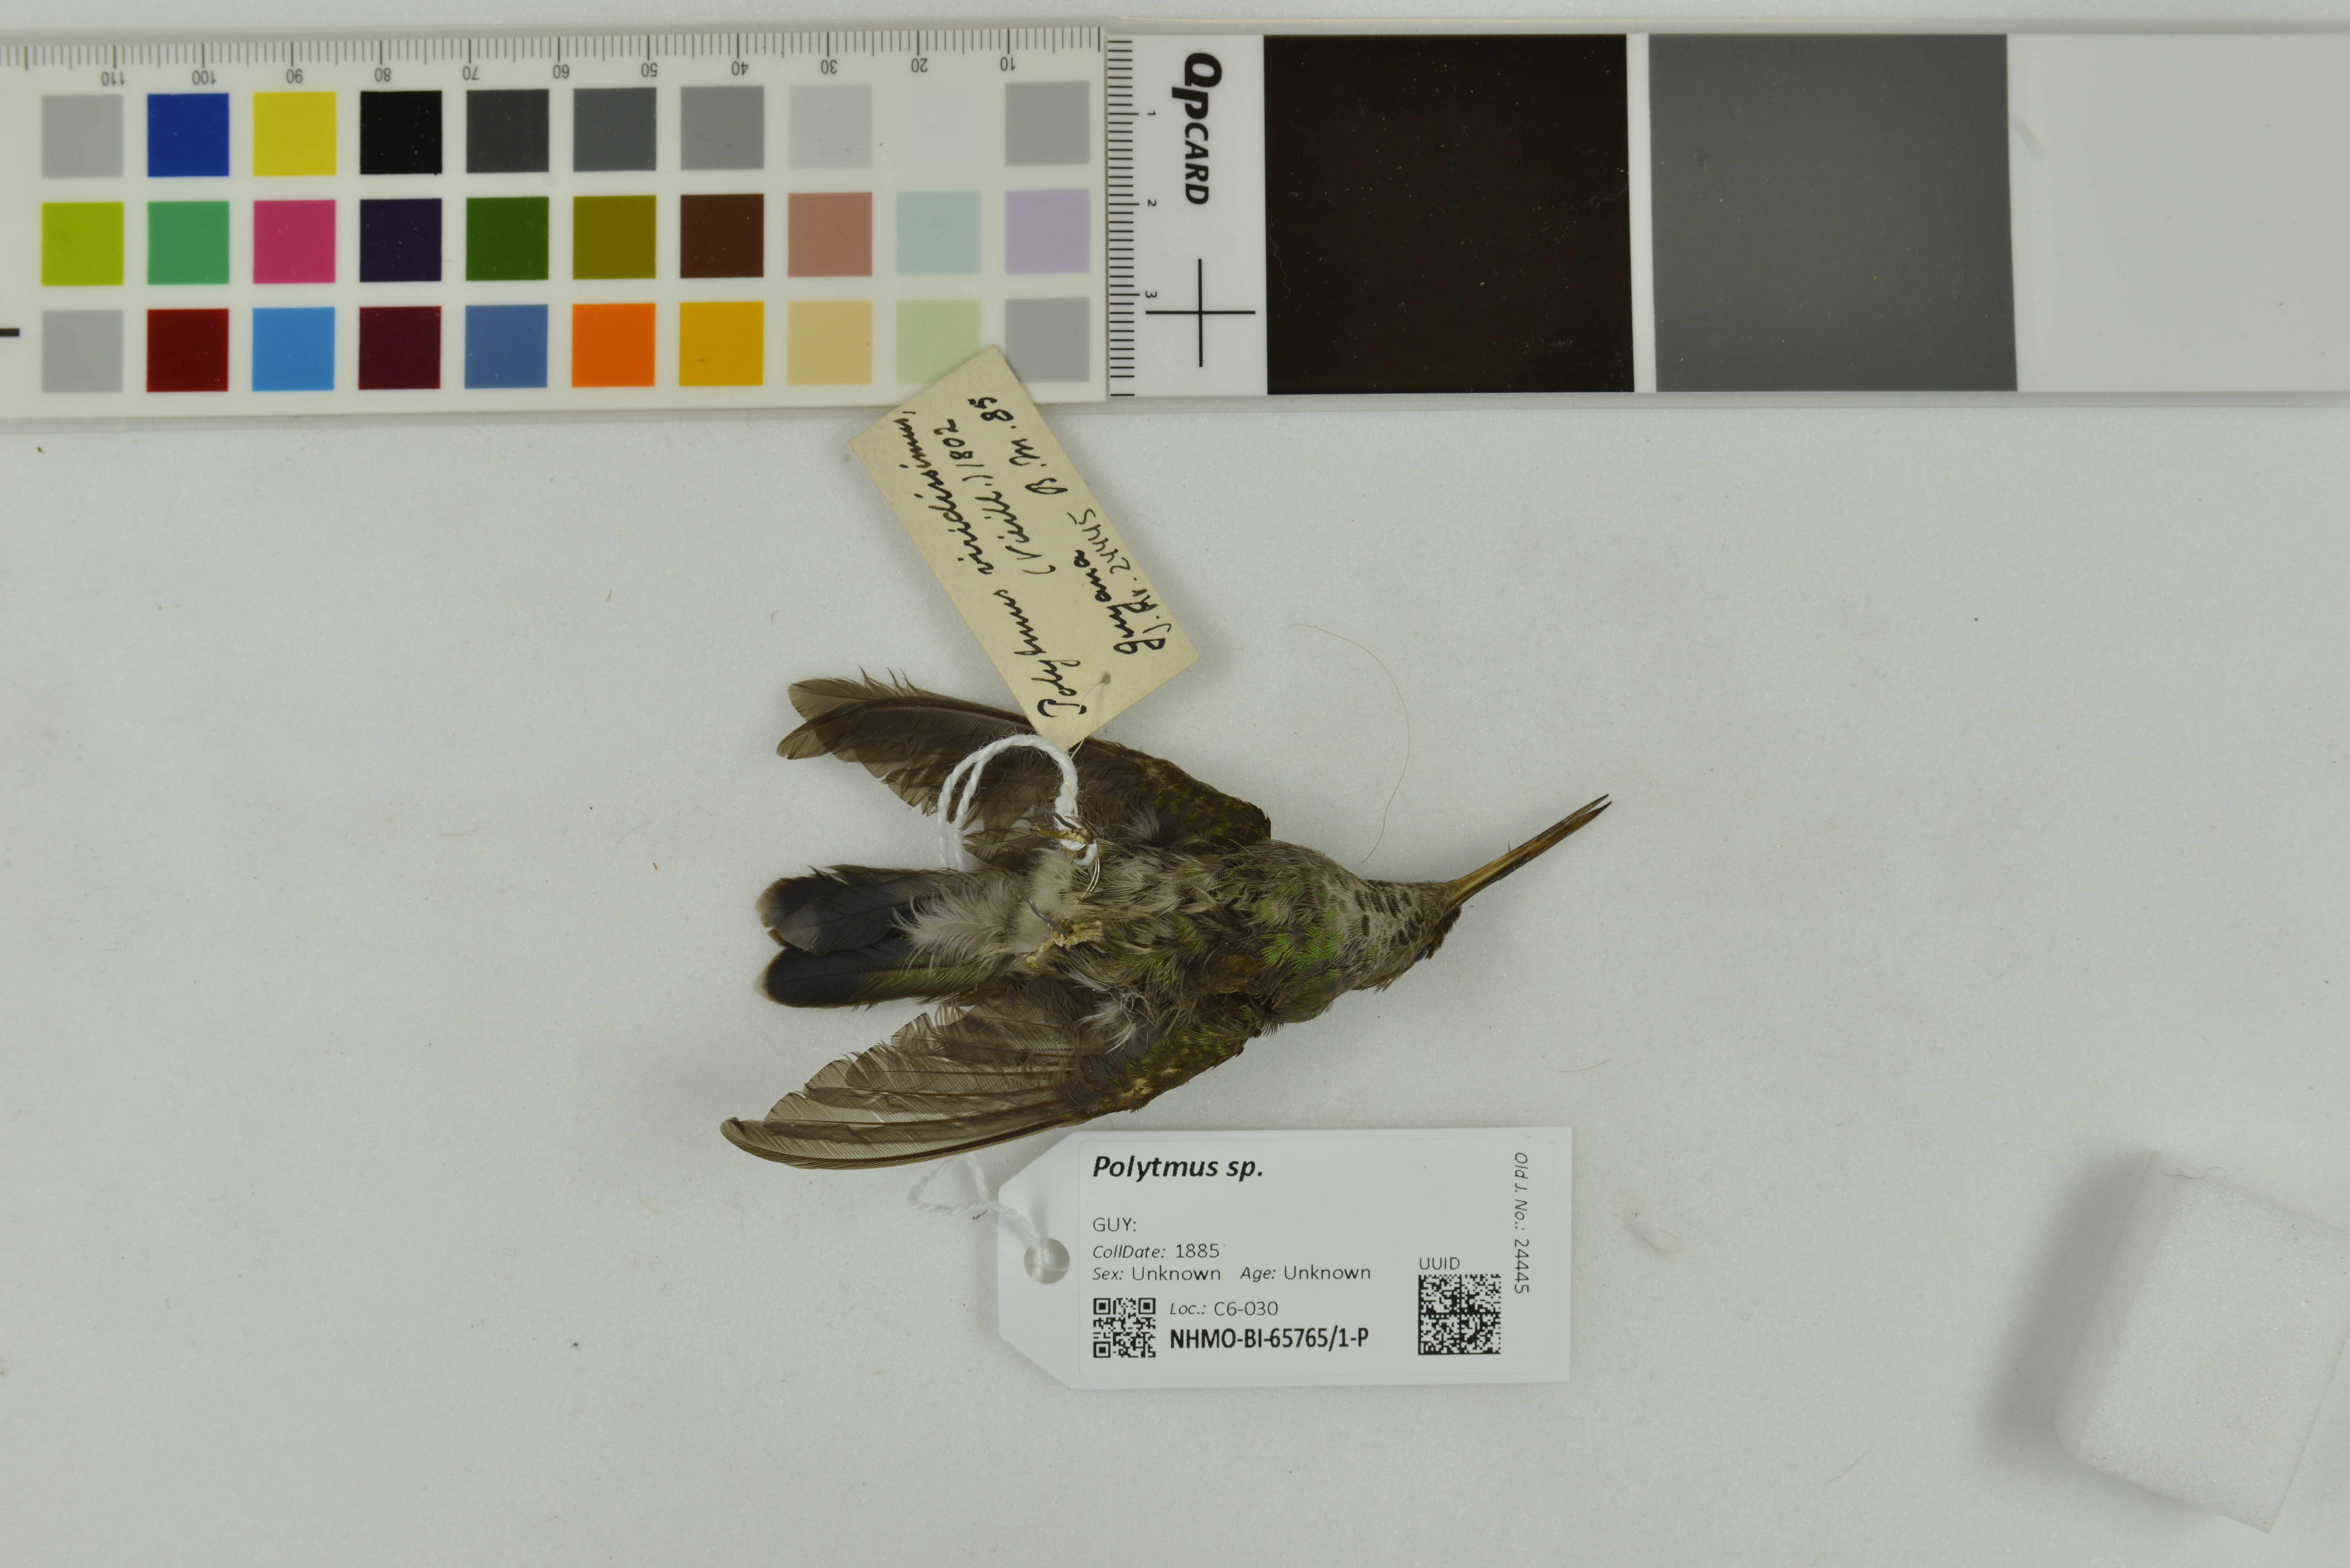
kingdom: Animalia
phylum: Chordata
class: Aves
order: Apodiformes
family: Trochilidae
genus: Polytmus
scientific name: Polytmus
